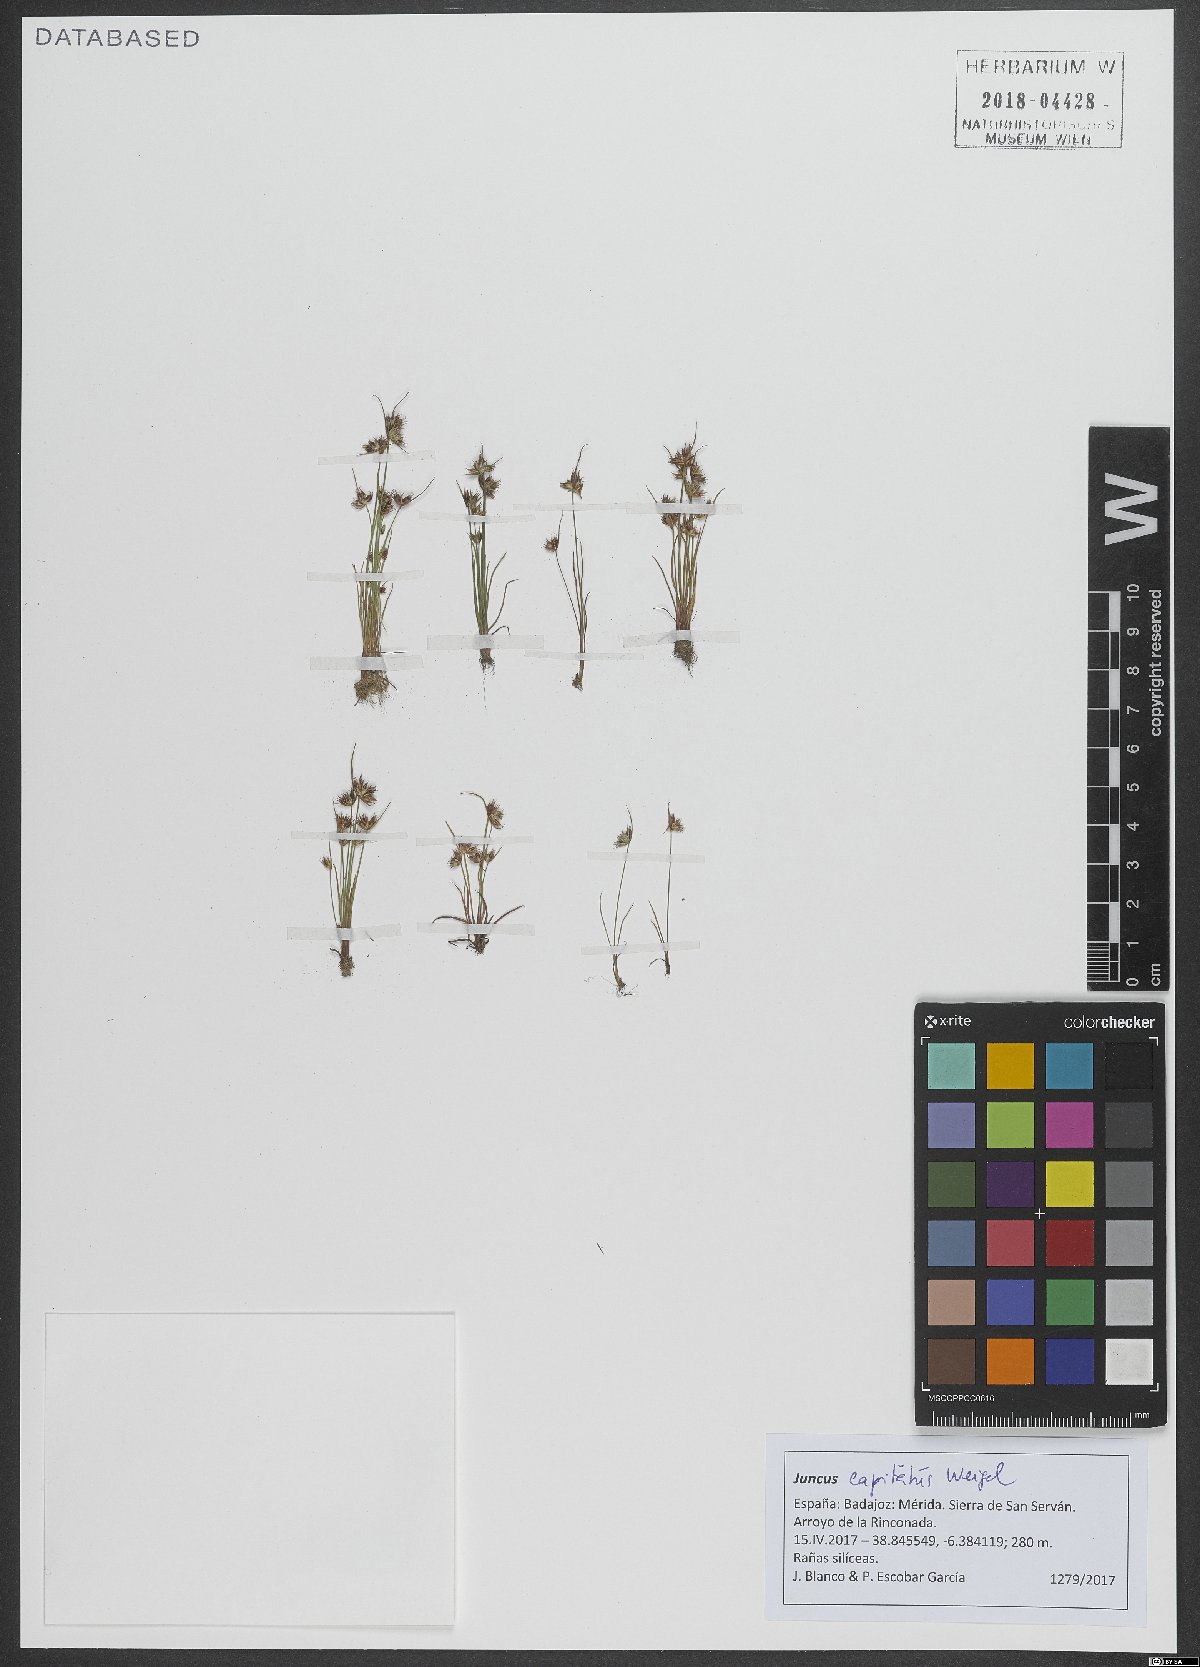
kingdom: Plantae
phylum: Tracheophyta
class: Liliopsida
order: Poales
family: Juncaceae
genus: Juncus
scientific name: Juncus capitatus
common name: Dwarf rush
